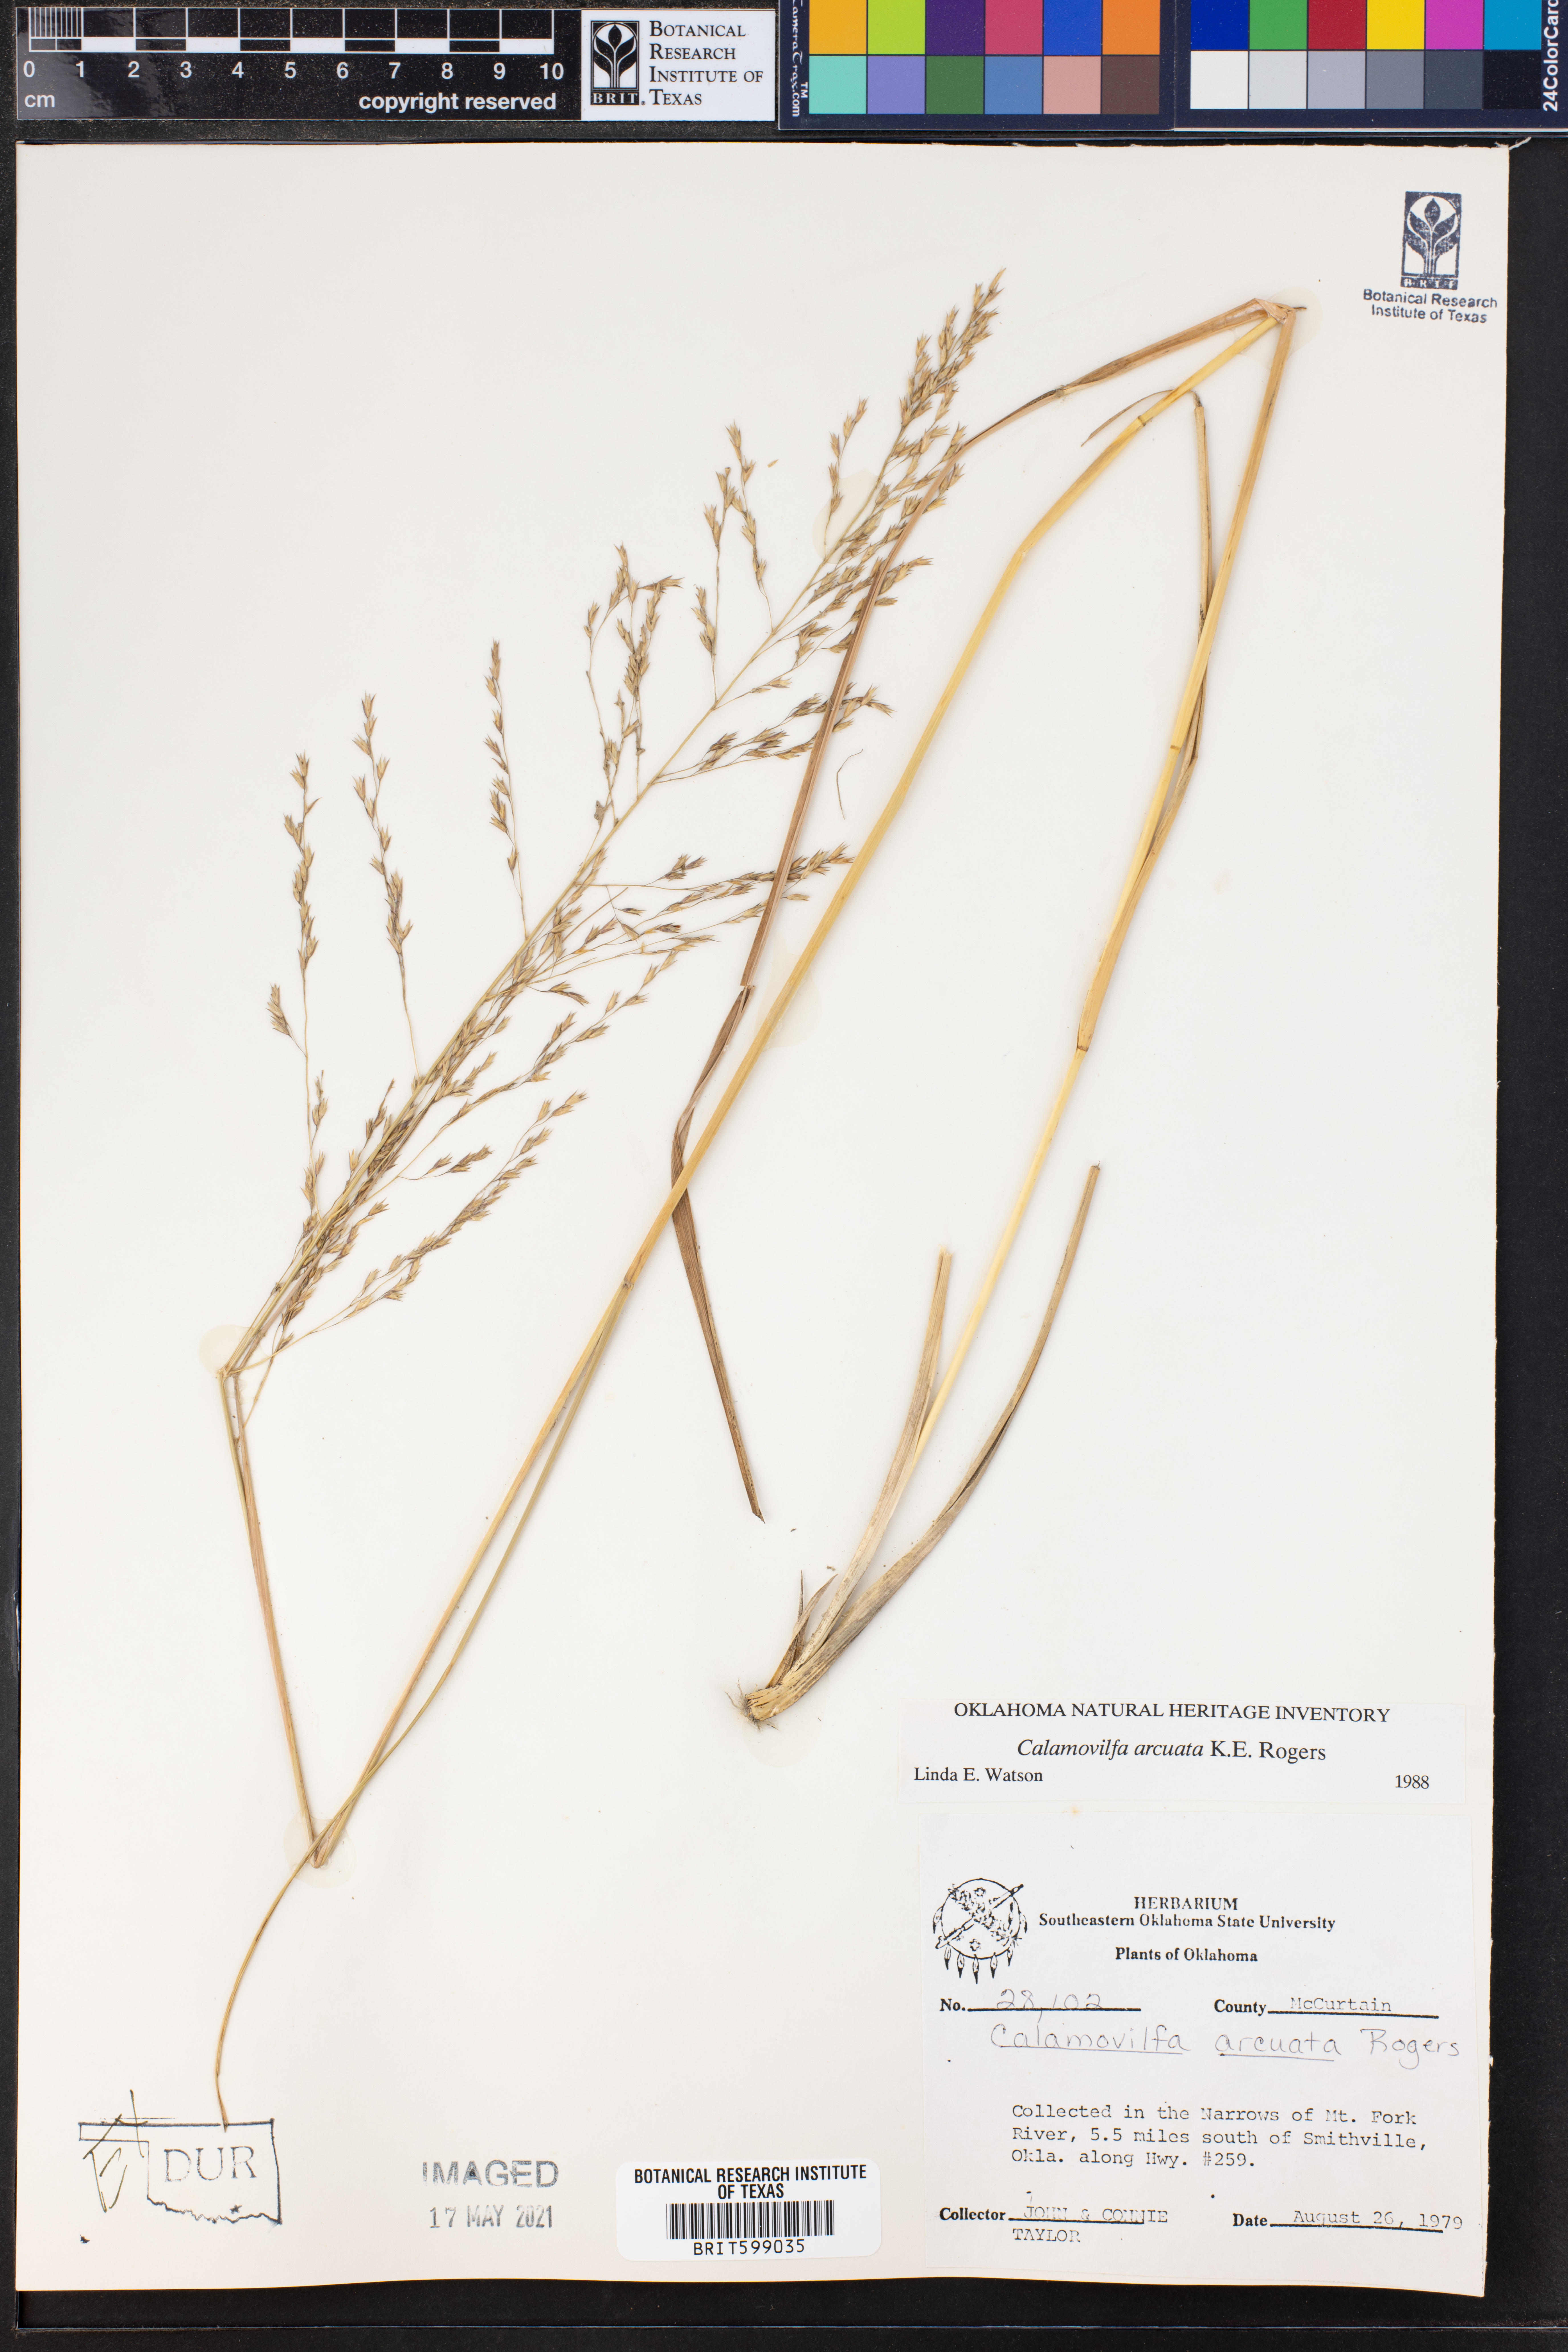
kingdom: Plantae
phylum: Tracheophyta
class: Liliopsida
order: Poales
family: Poaceae
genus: Sporobolus
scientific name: Sporobolus arcuatus
